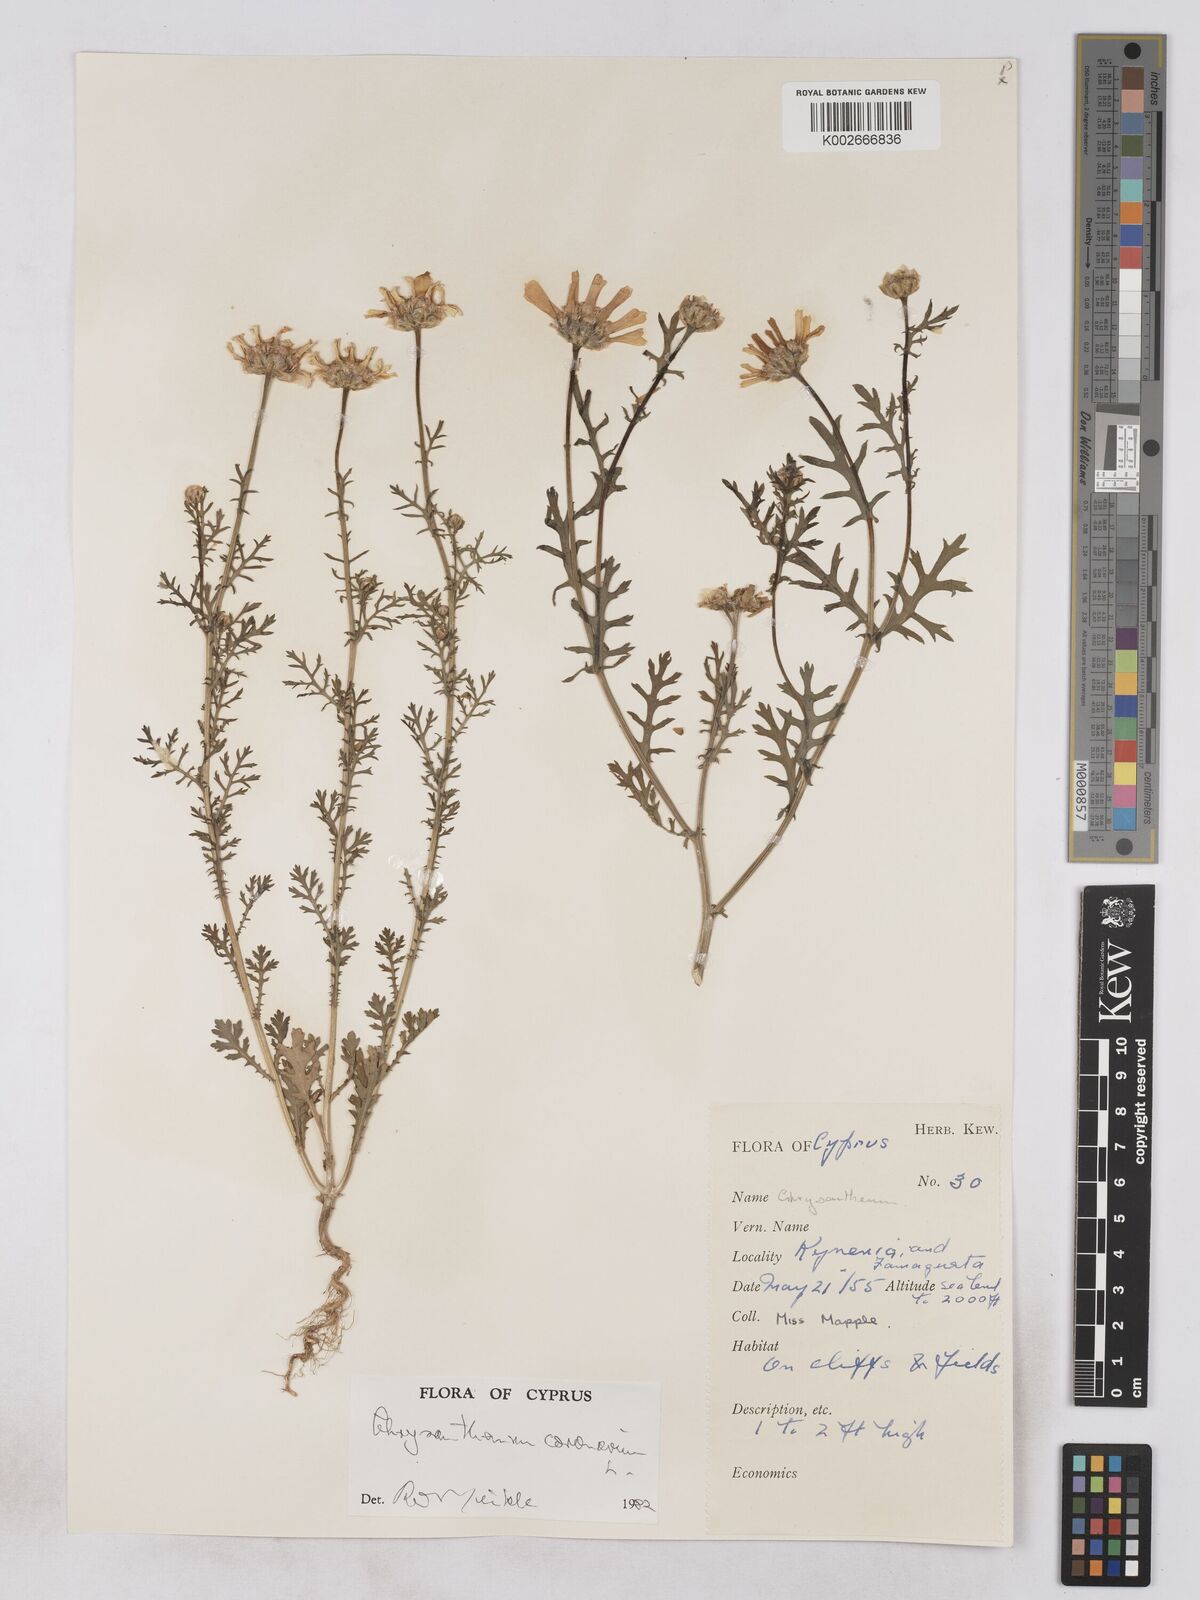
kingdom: Plantae
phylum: Tracheophyta
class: Magnoliopsida
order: Asterales
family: Asteraceae
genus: Glebionis
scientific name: Glebionis coronaria
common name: Crowndaisy
